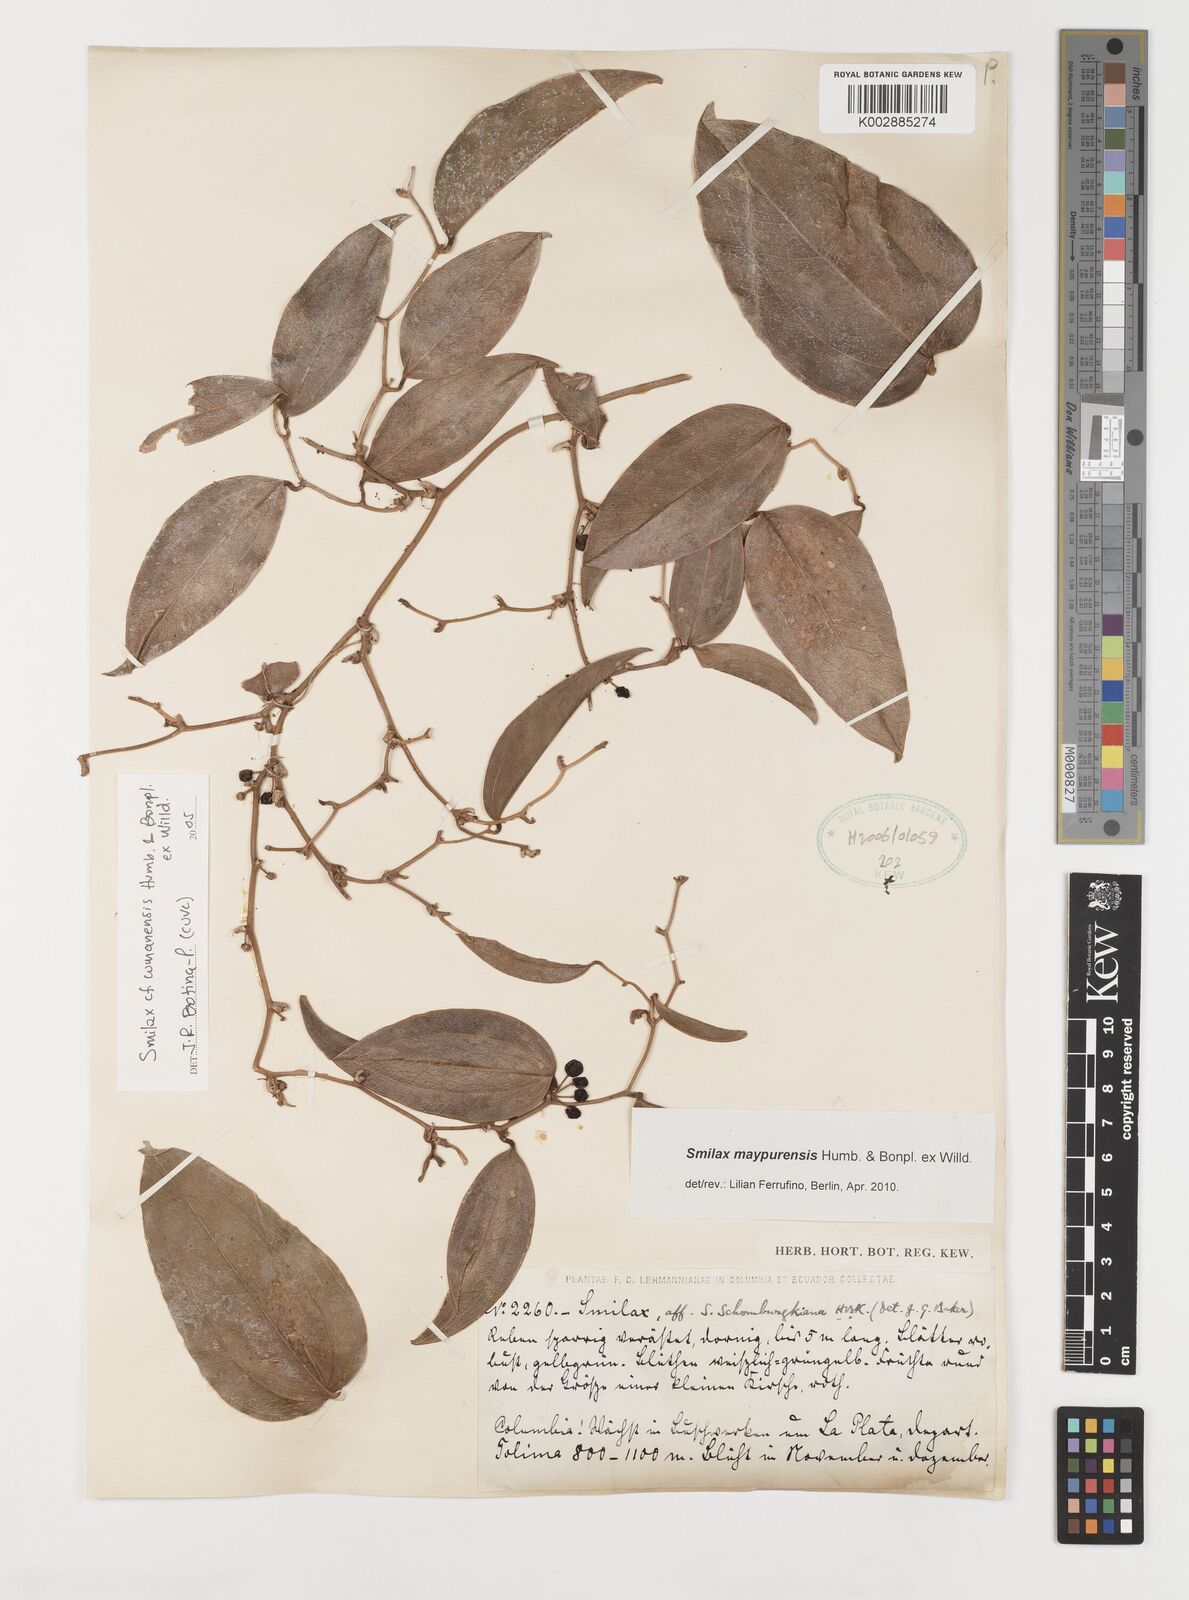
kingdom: Plantae
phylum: Tracheophyta
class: Liliopsida
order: Liliales
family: Smilacaceae
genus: Smilax
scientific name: Smilax maypurensis
